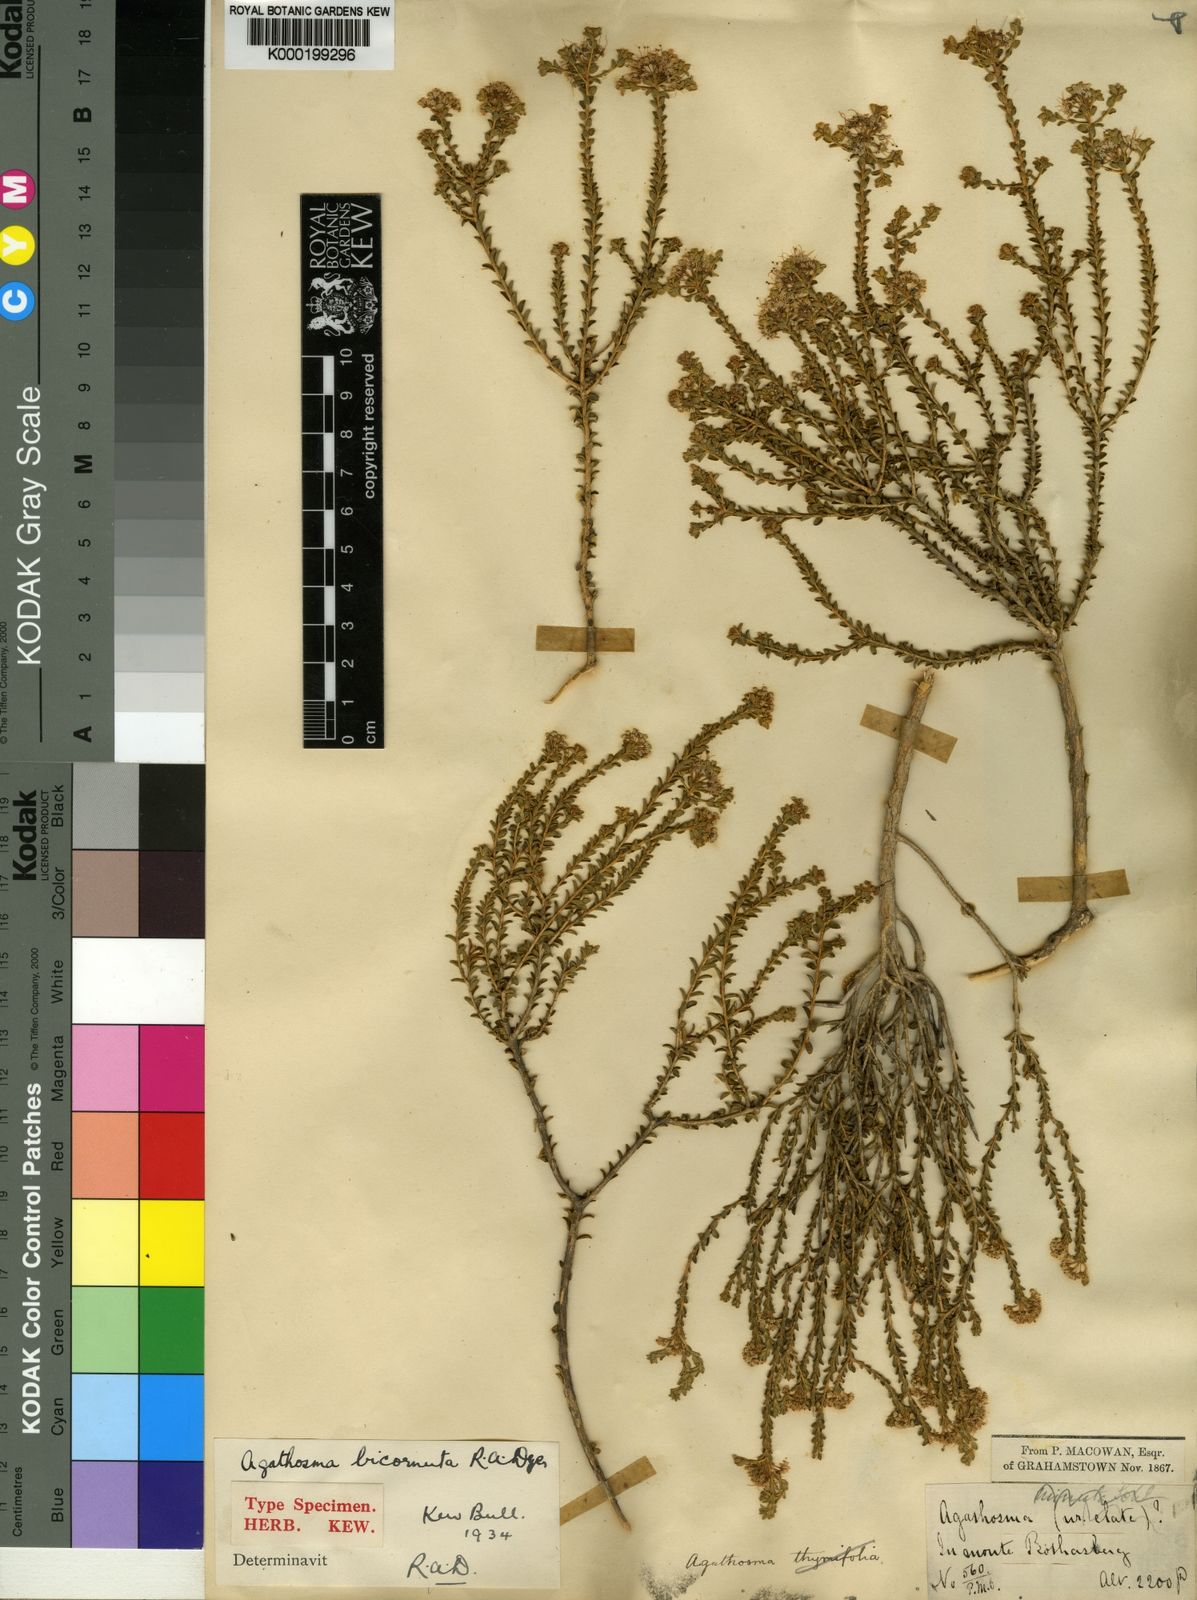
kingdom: Plantae
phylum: Tracheophyta
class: Magnoliopsida
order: Sapindales
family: Rutaceae
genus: Agathosma
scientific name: Agathosma bicornuta
